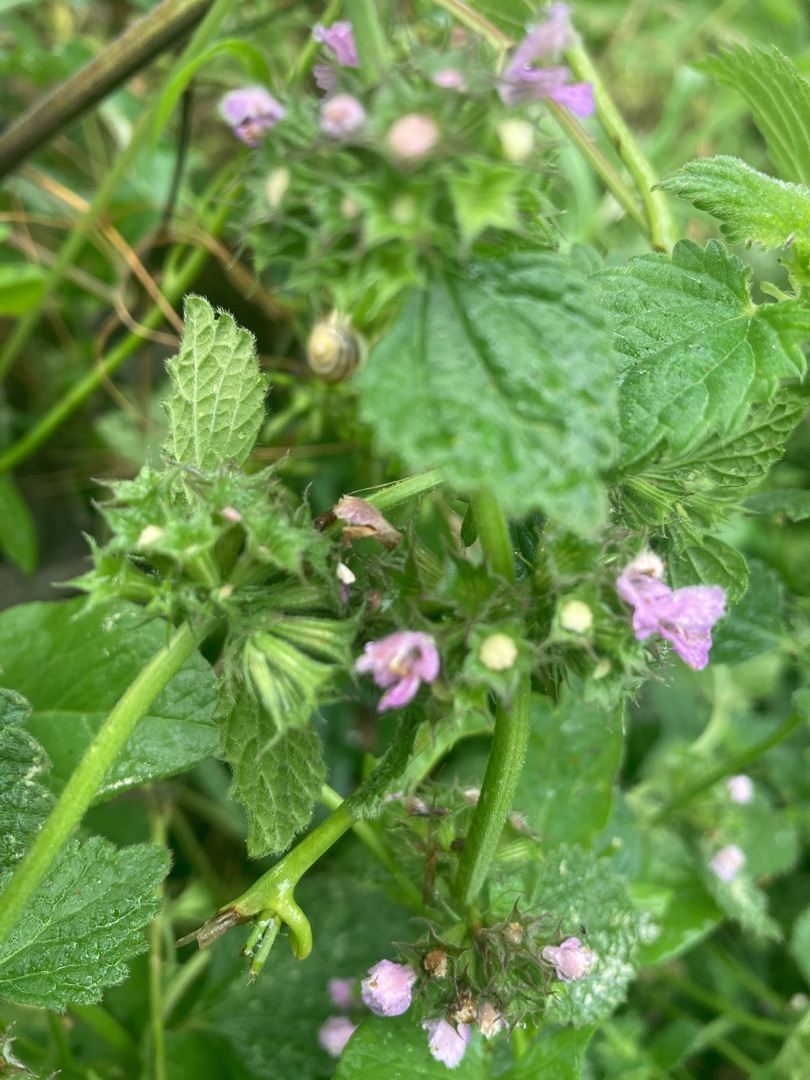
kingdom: Plantae
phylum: Tracheophyta
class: Magnoliopsida
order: Lamiales
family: Lamiaceae
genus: Ballota
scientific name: Ballota nigra
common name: Tandbæger
